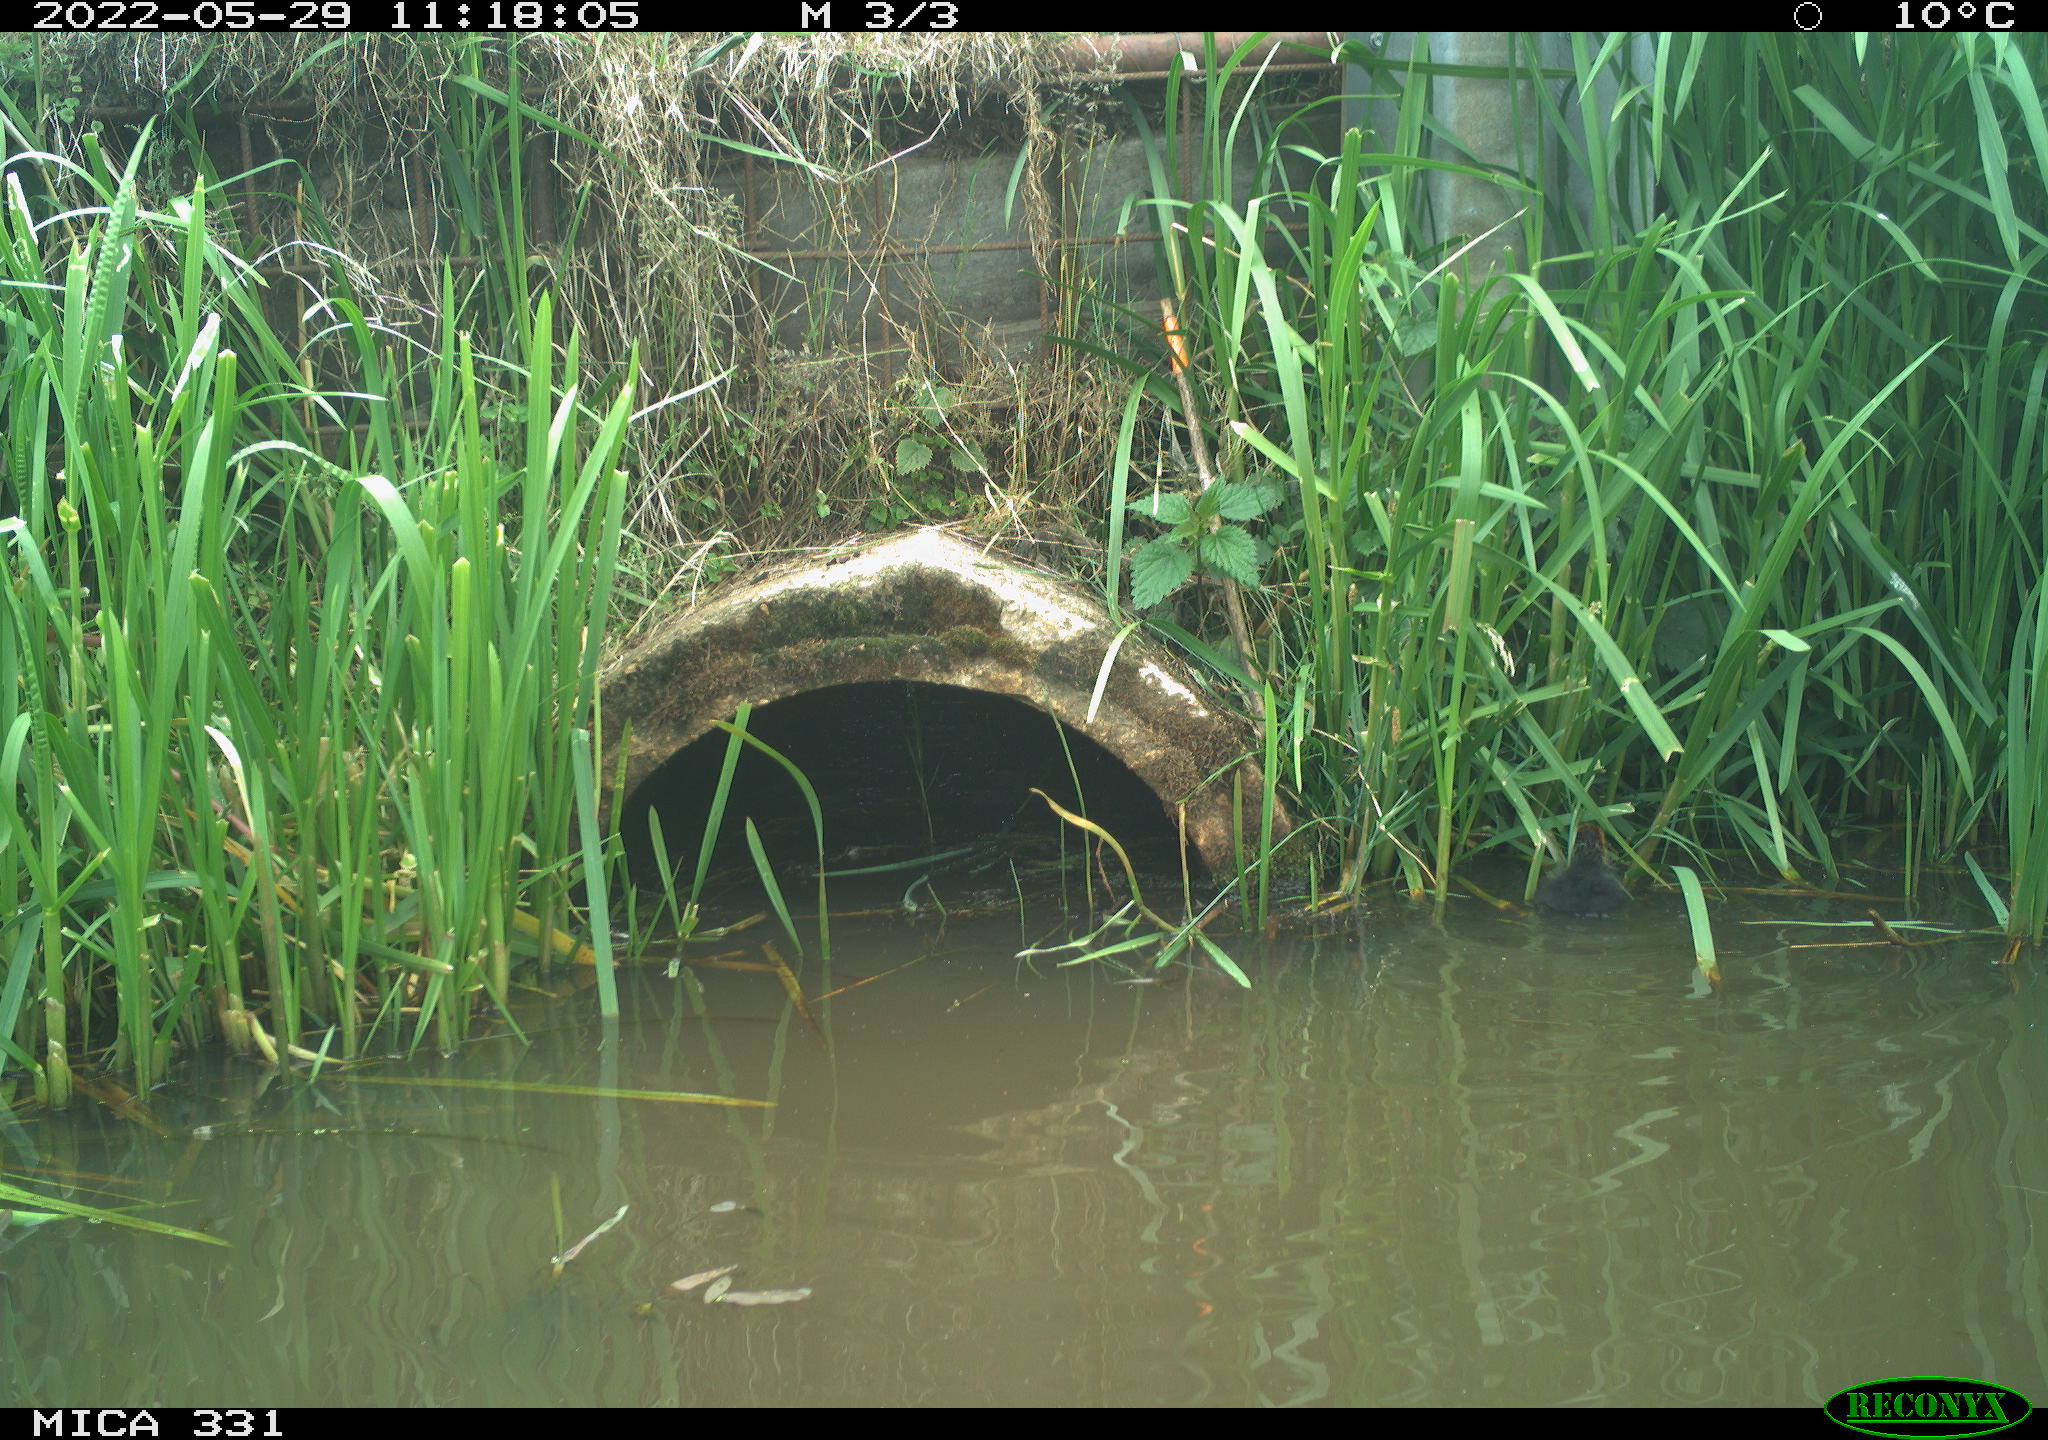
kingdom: Animalia
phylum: Chordata
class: Aves
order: Gruiformes
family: Rallidae
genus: Fulica
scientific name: Fulica atra
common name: Eurasian coot
